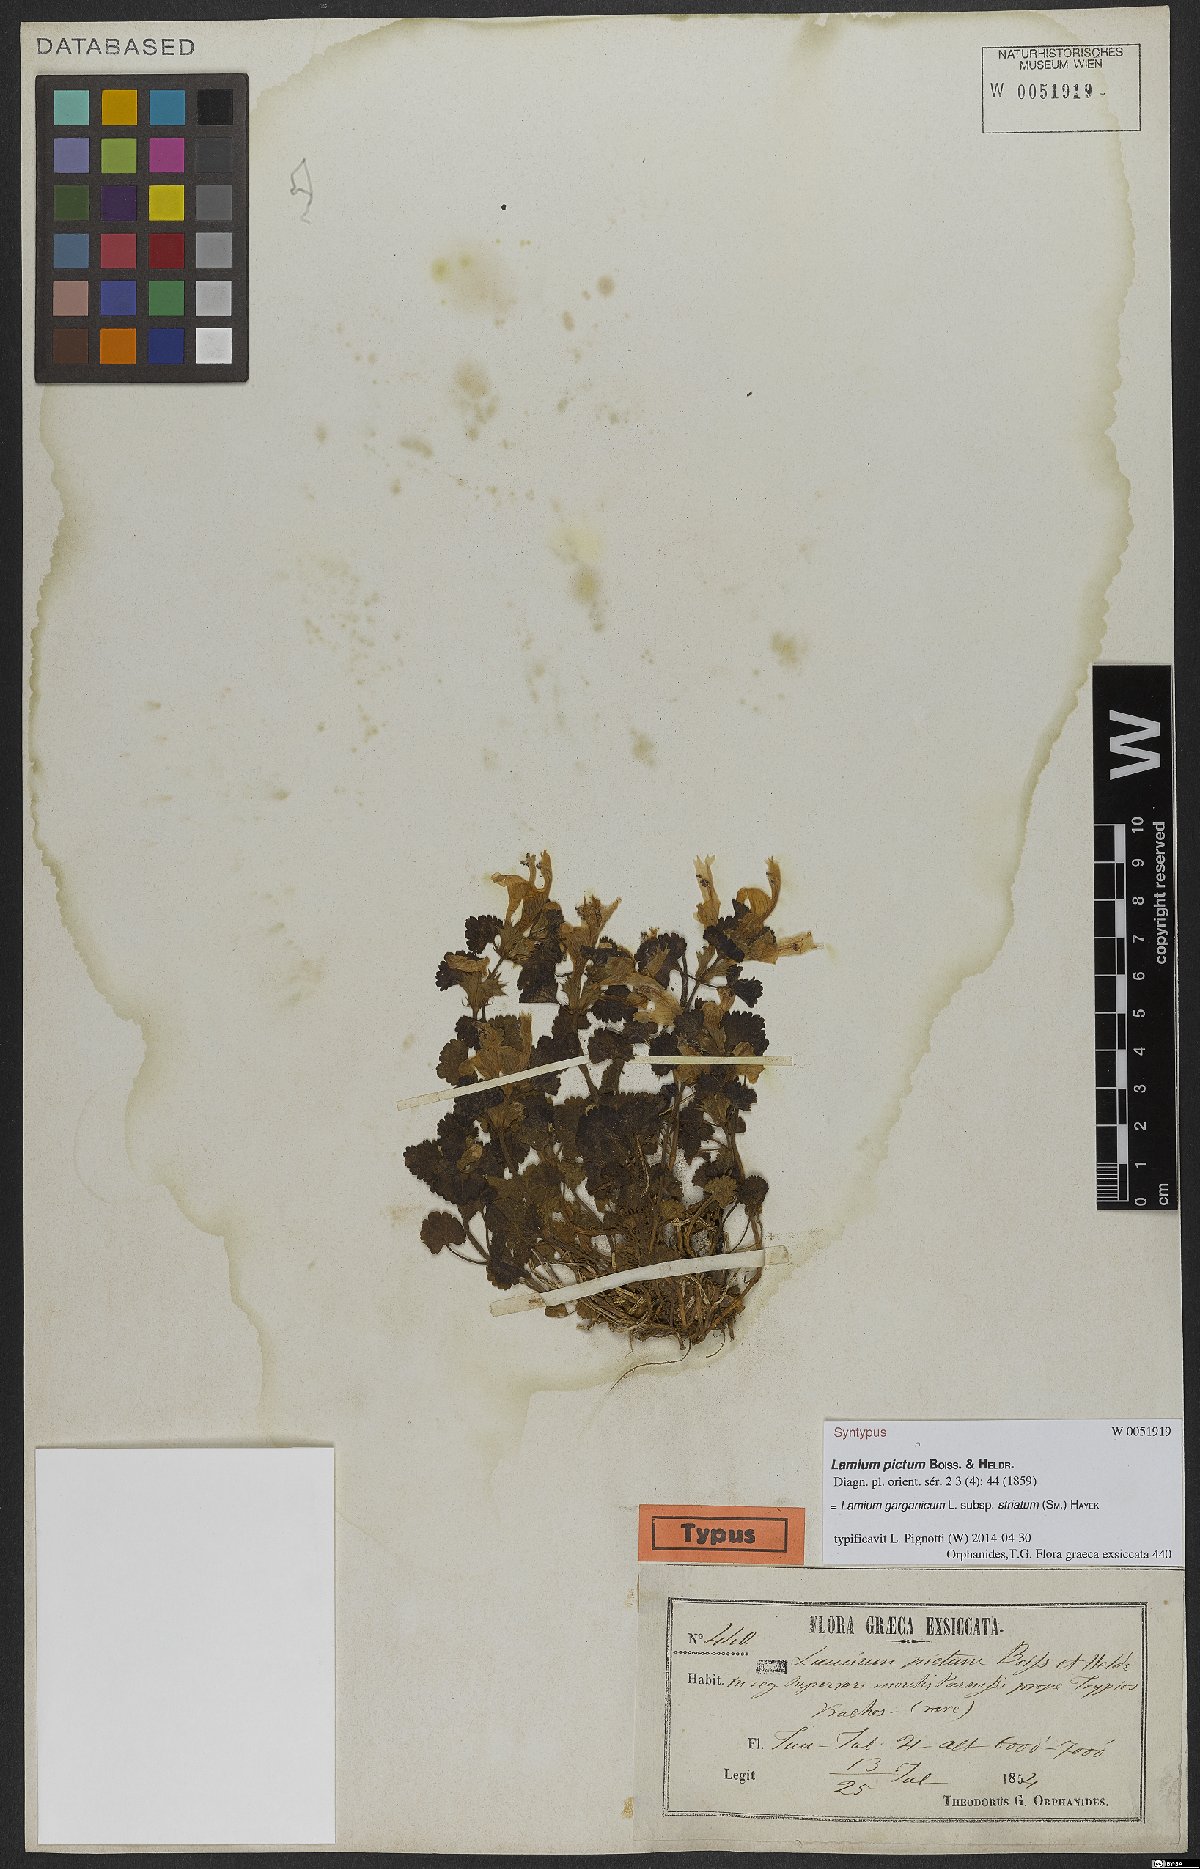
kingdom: Plantae
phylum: Tracheophyta
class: Magnoliopsida
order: Lamiales
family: Lamiaceae
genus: Lamium
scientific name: Lamium garganicum
